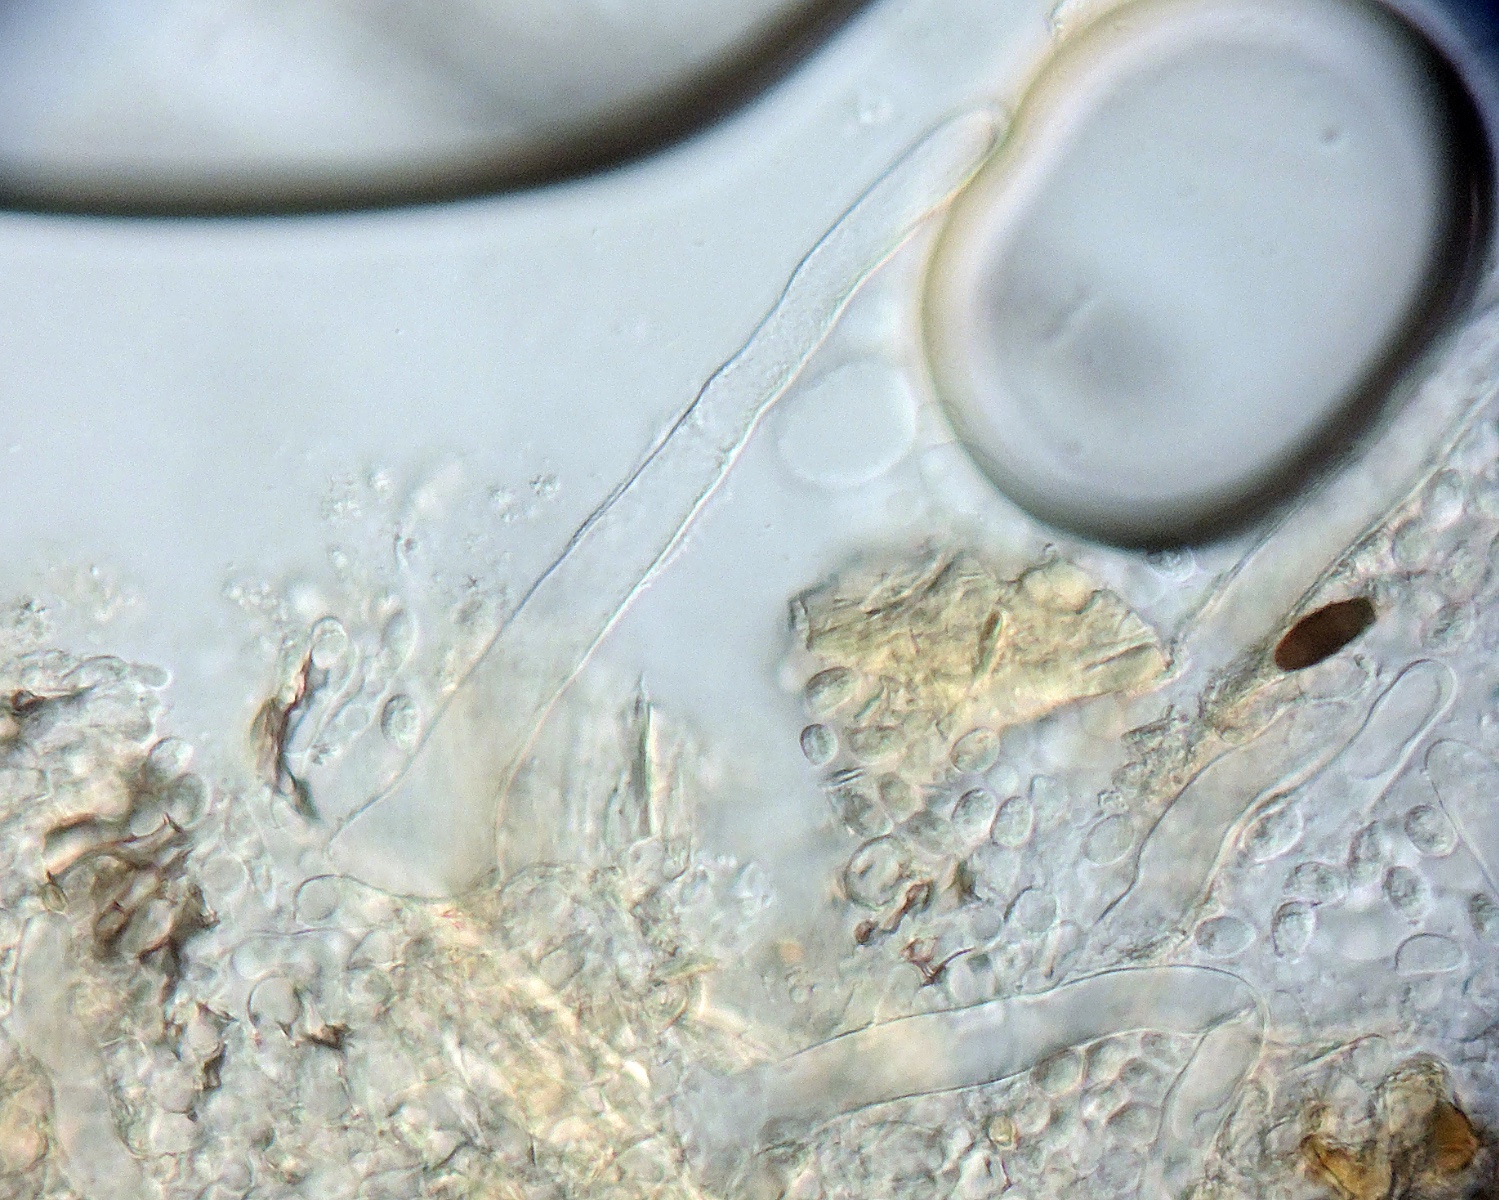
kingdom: Fungi
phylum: Basidiomycota
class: Agaricomycetes
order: Hymenochaetales
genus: Kurtia
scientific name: Kurtia argillacea
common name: Kurts kalkskind
